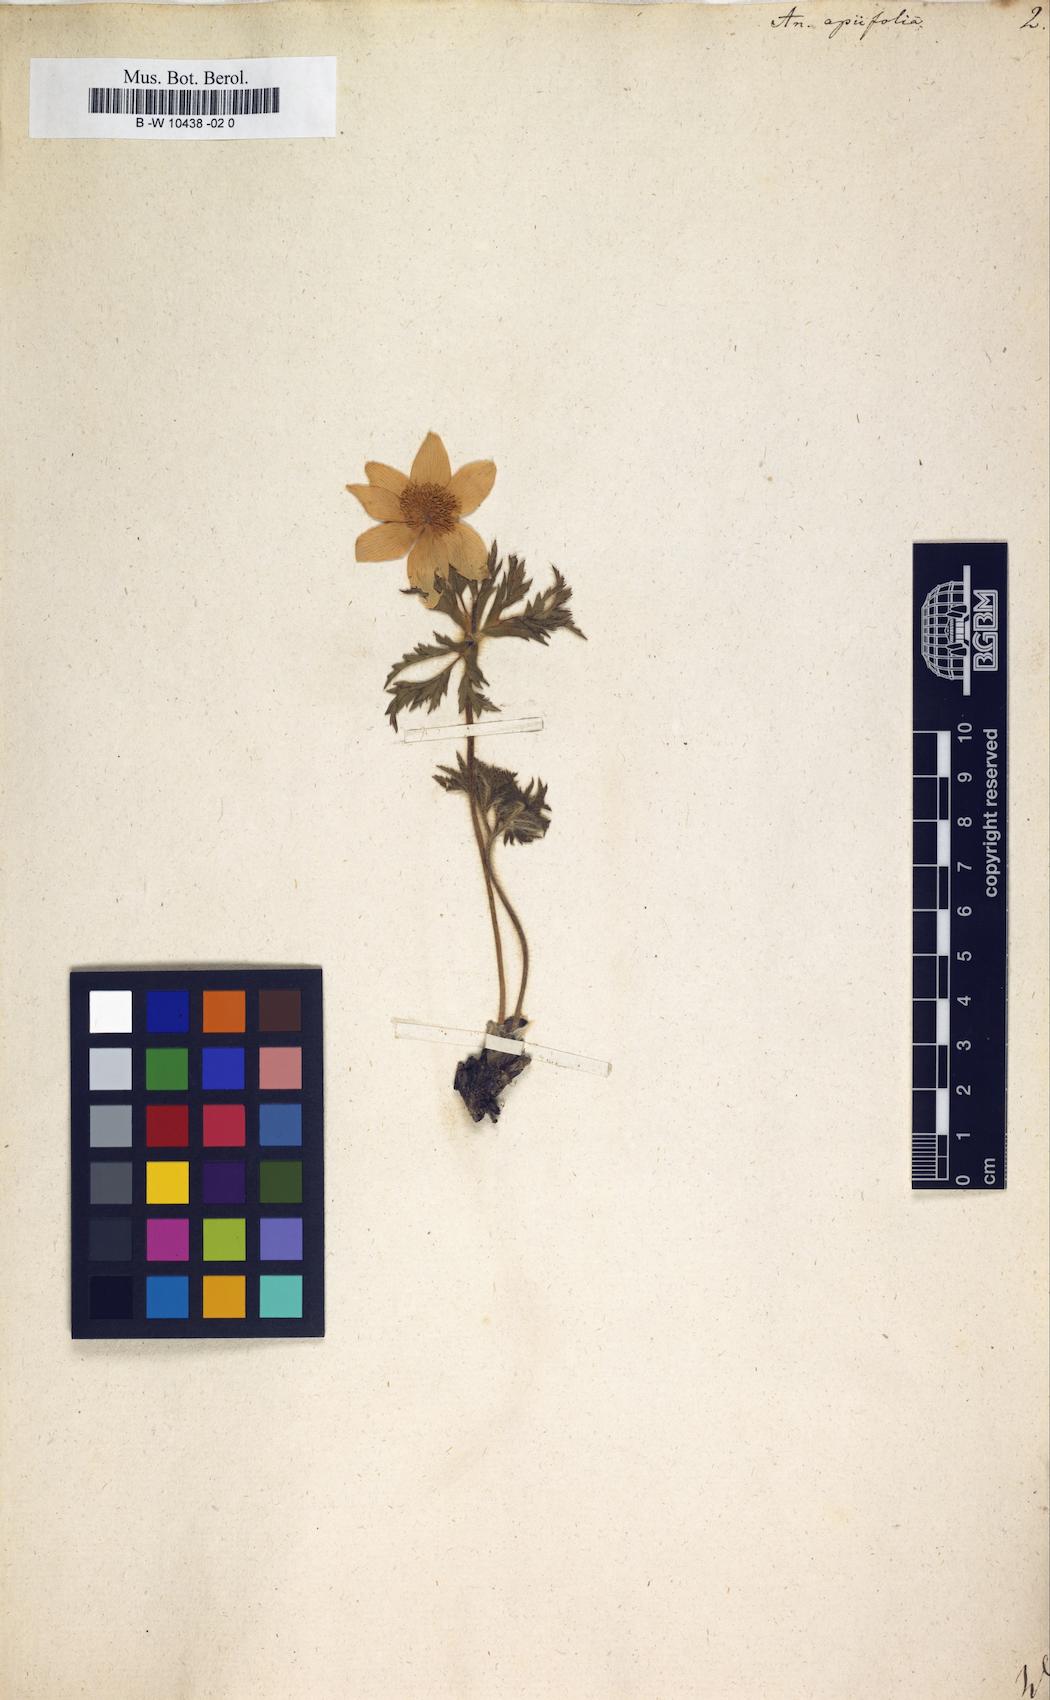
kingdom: Plantae
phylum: Tracheophyta
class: Magnoliopsida
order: Ranunculales
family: Ranunculaceae
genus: Pulsatilla
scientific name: Pulsatilla alpina
